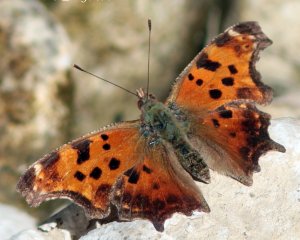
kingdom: Animalia
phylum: Arthropoda
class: Insecta
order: Lepidoptera
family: Nymphalidae
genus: Polygonia
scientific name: Polygonia comma
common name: Eastern Comma
